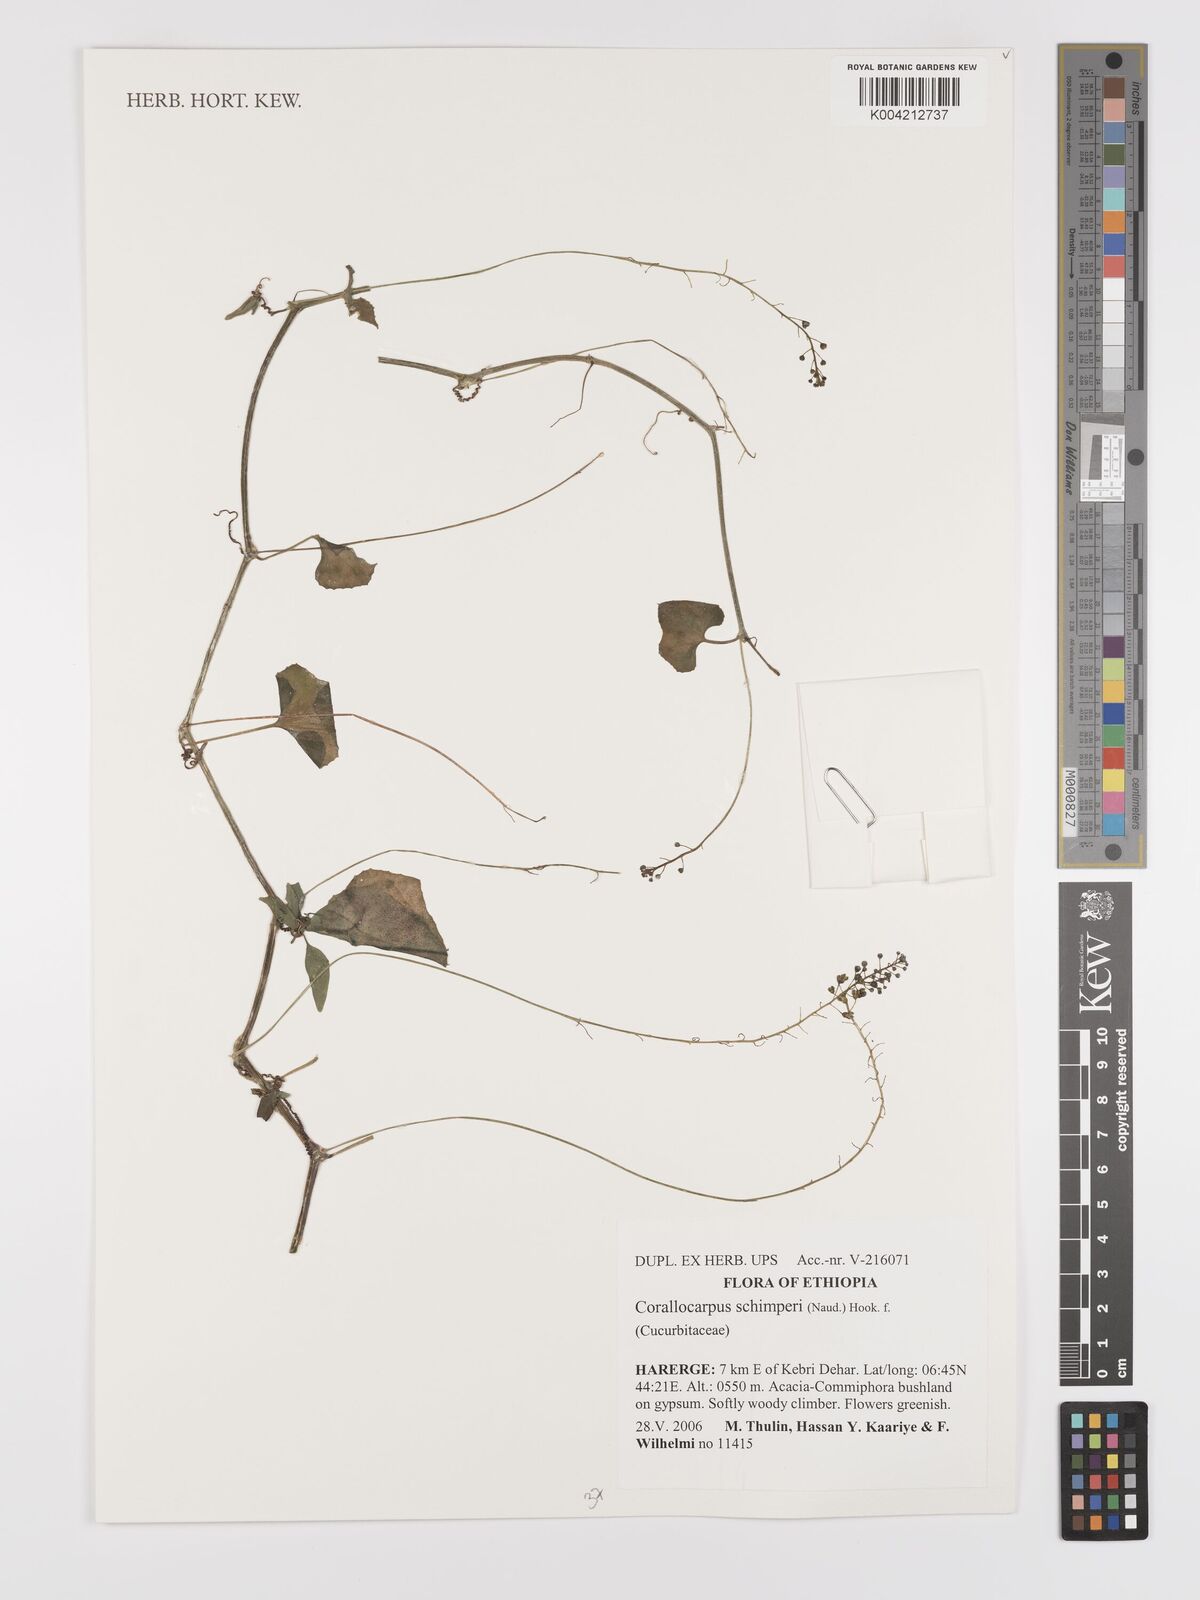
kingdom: Plantae
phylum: Tracheophyta
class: Magnoliopsida
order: Cucurbitales
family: Cucurbitaceae
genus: Corallocarpus
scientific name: Corallocarpus schimperi
